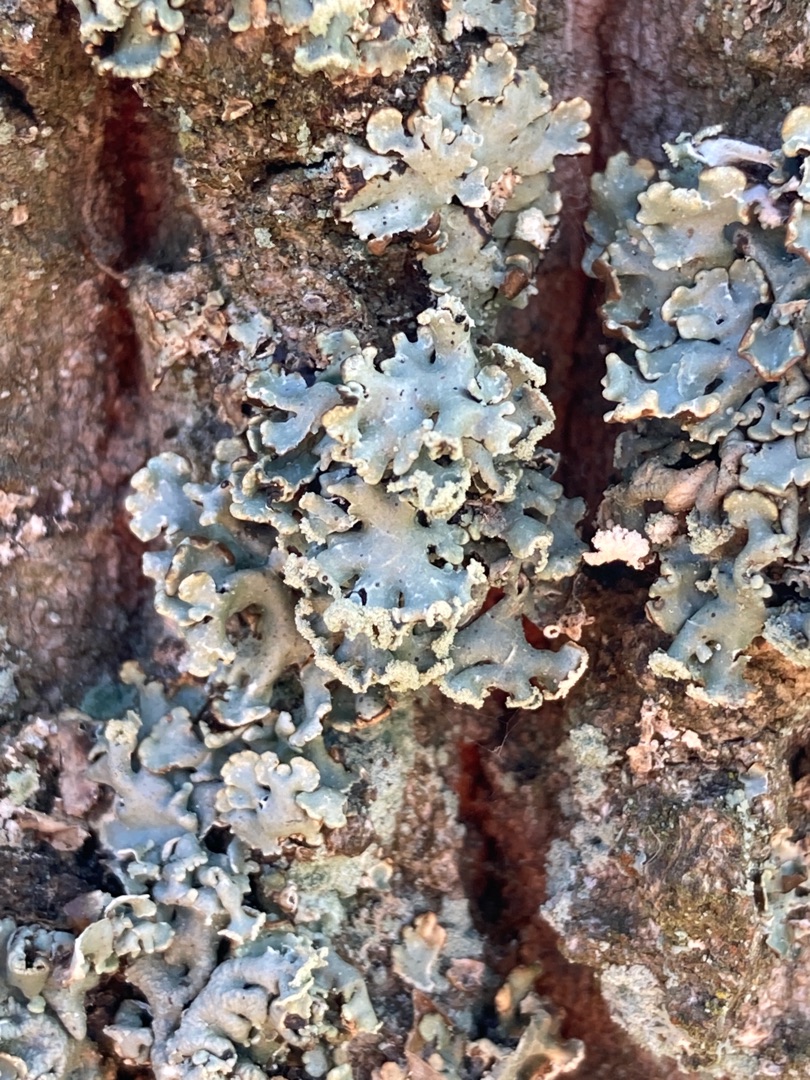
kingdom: Fungi
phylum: Ascomycota
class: Lecanoromycetes
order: Lecanorales
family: Parmeliaceae
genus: Hypogymnia
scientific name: Hypogymnia physodes
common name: Almindelig kvistlav
